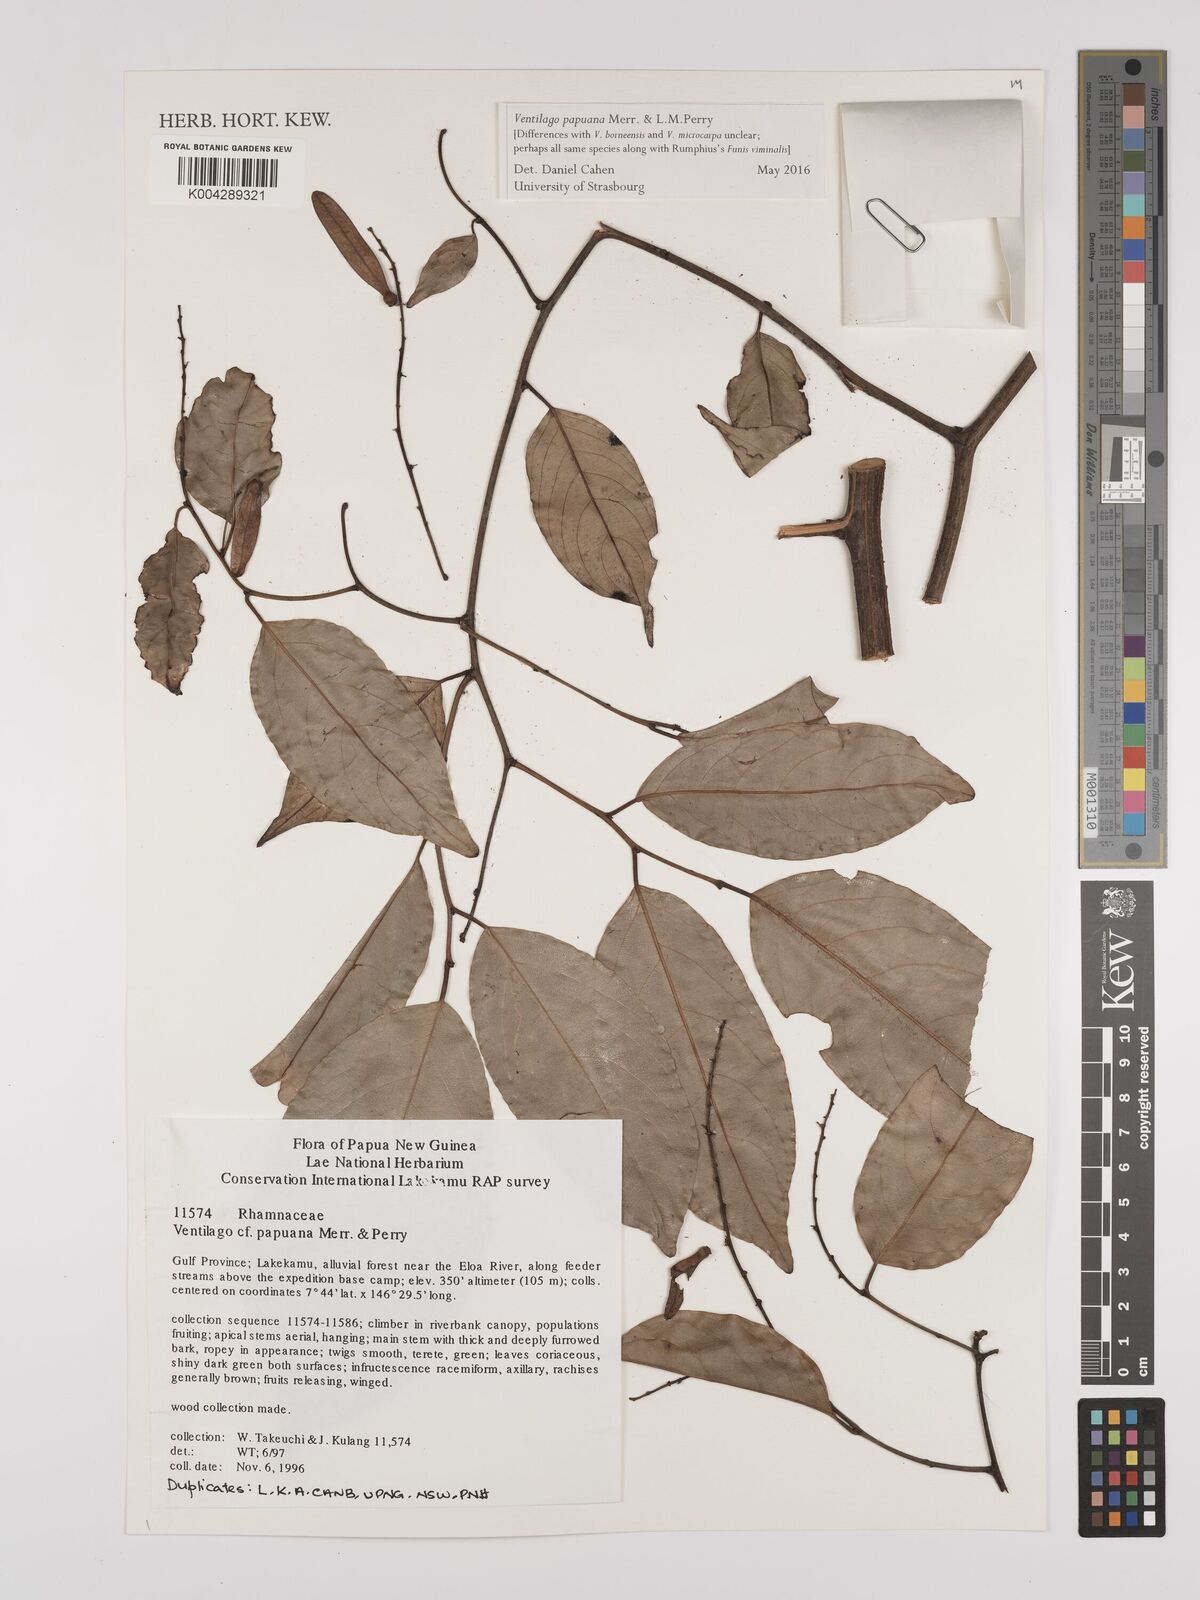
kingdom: Plantae
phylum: Tracheophyta
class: Magnoliopsida
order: Rosales
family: Rhamnaceae
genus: Ventilago
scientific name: Ventilago papuana
